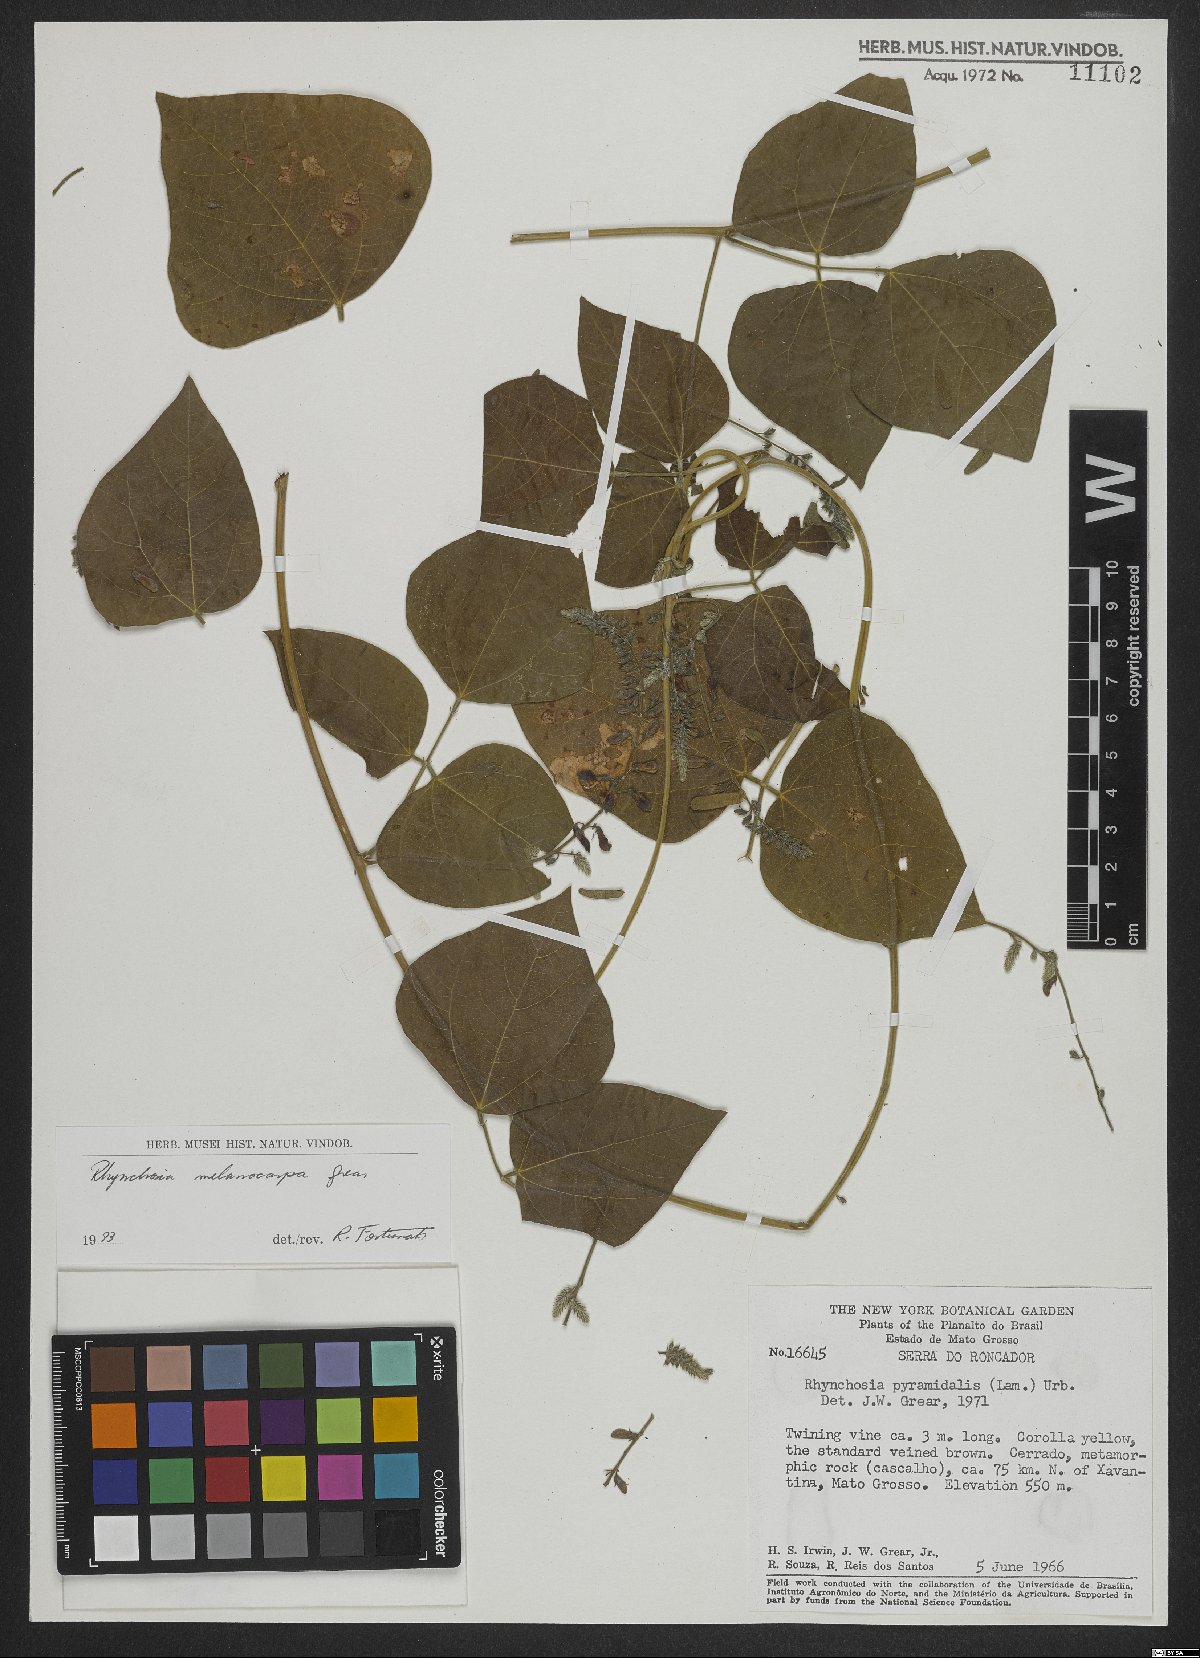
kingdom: Plantae
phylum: Tracheophyta
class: Magnoliopsida
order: Fabales
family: Fabaceae
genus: Rhynchosia
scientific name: Rhynchosia melanocarpa
